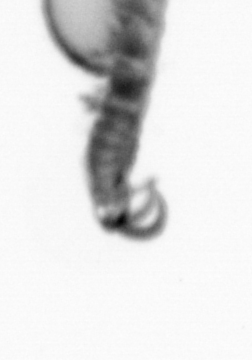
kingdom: Animalia
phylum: Annelida
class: Polychaeta
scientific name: Polychaeta
